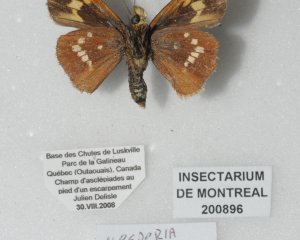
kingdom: Animalia
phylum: Arthropoda
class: Insecta
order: Lepidoptera
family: Hesperiidae
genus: Hesperia
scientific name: Hesperia leonardus
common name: Leonard's Skipper
